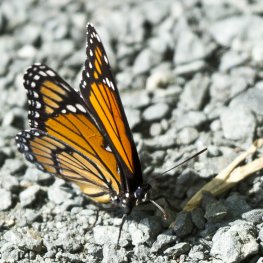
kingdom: Animalia
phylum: Arthropoda
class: Insecta
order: Lepidoptera
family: Nymphalidae
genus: Limenitis
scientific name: Limenitis archippus
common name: Viceroy
